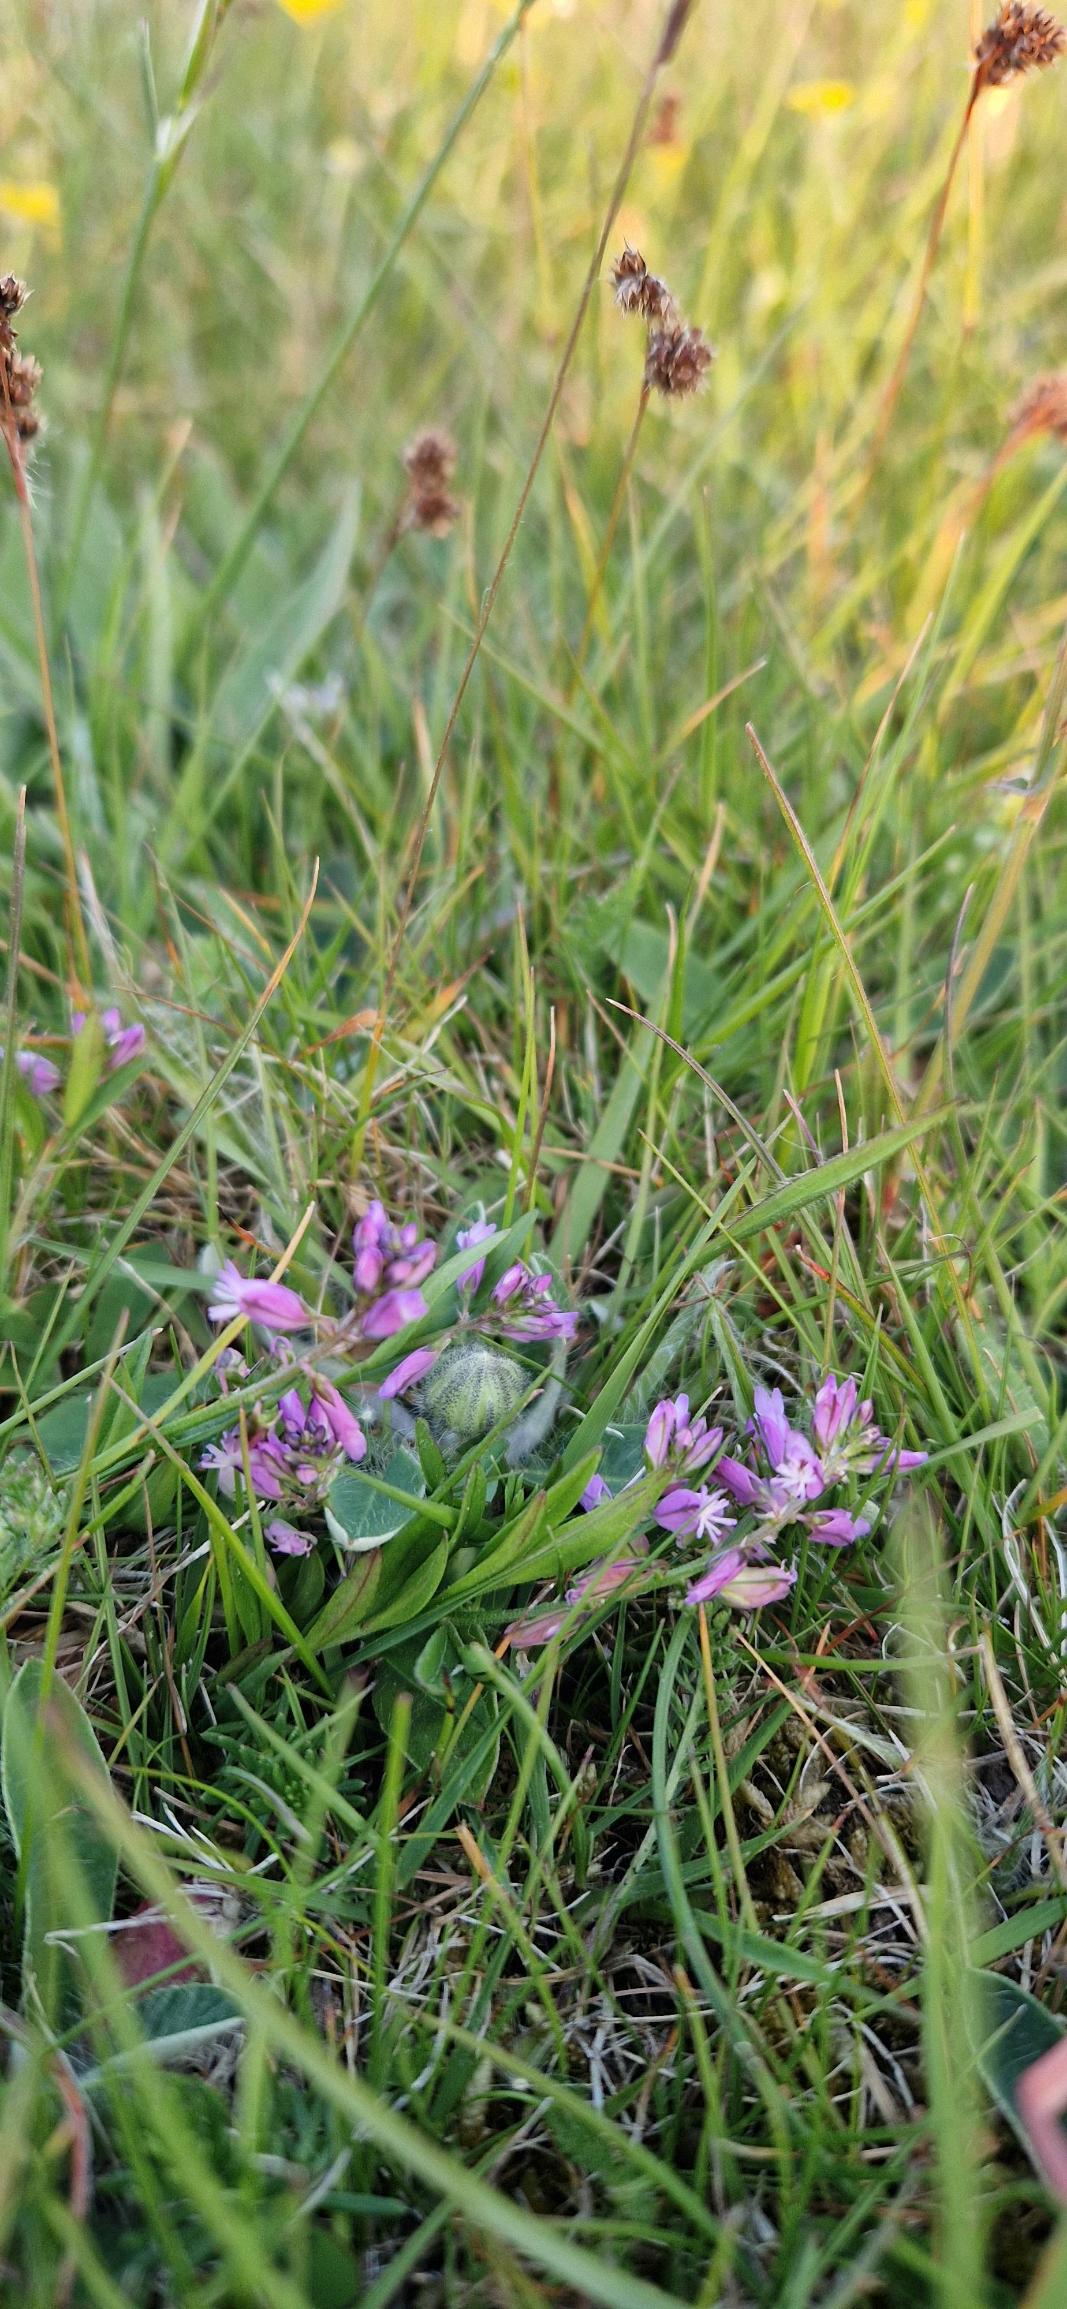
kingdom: Plantae
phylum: Tracheophyta
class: Magnoliopsida
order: Fabales
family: Polygalaceae
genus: Polygala
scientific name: Polygala vulgaris
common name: Almindelig mælkeurt
